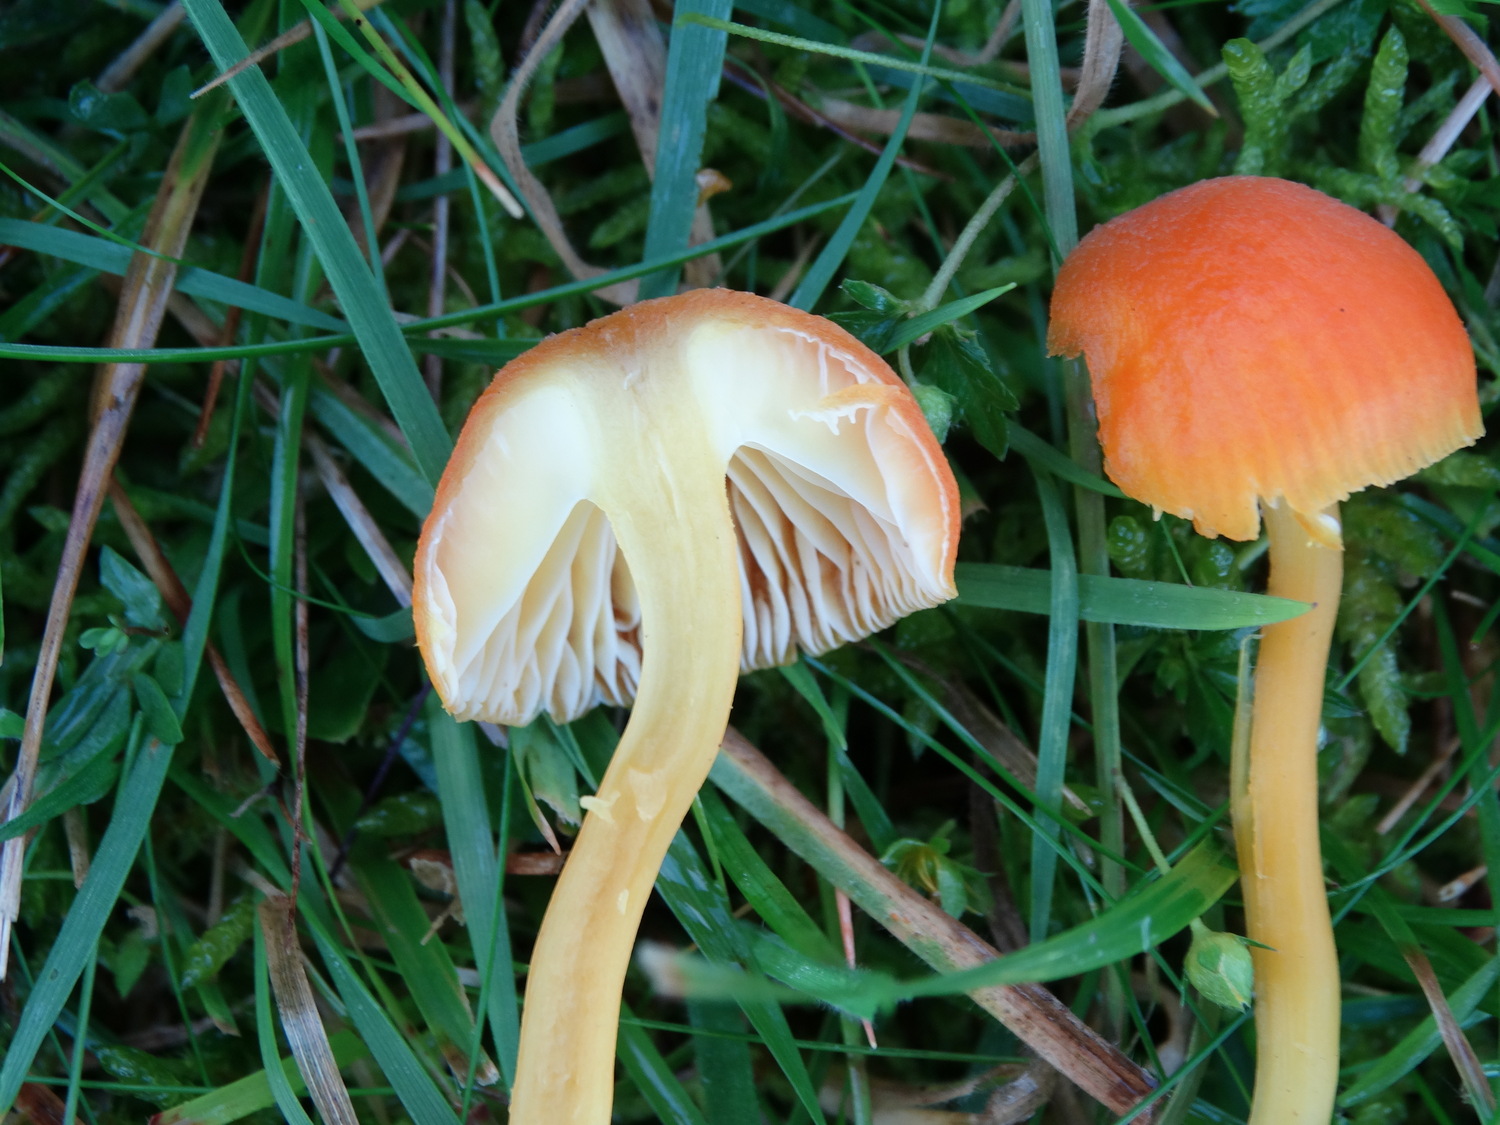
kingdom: Fungi
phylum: Basidiomycota
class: Agaricomycetes
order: Agaricales
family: Hygrophoraceae
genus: Hygrocybe
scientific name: Hygrocybe miniata
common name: mønje-vokshat
